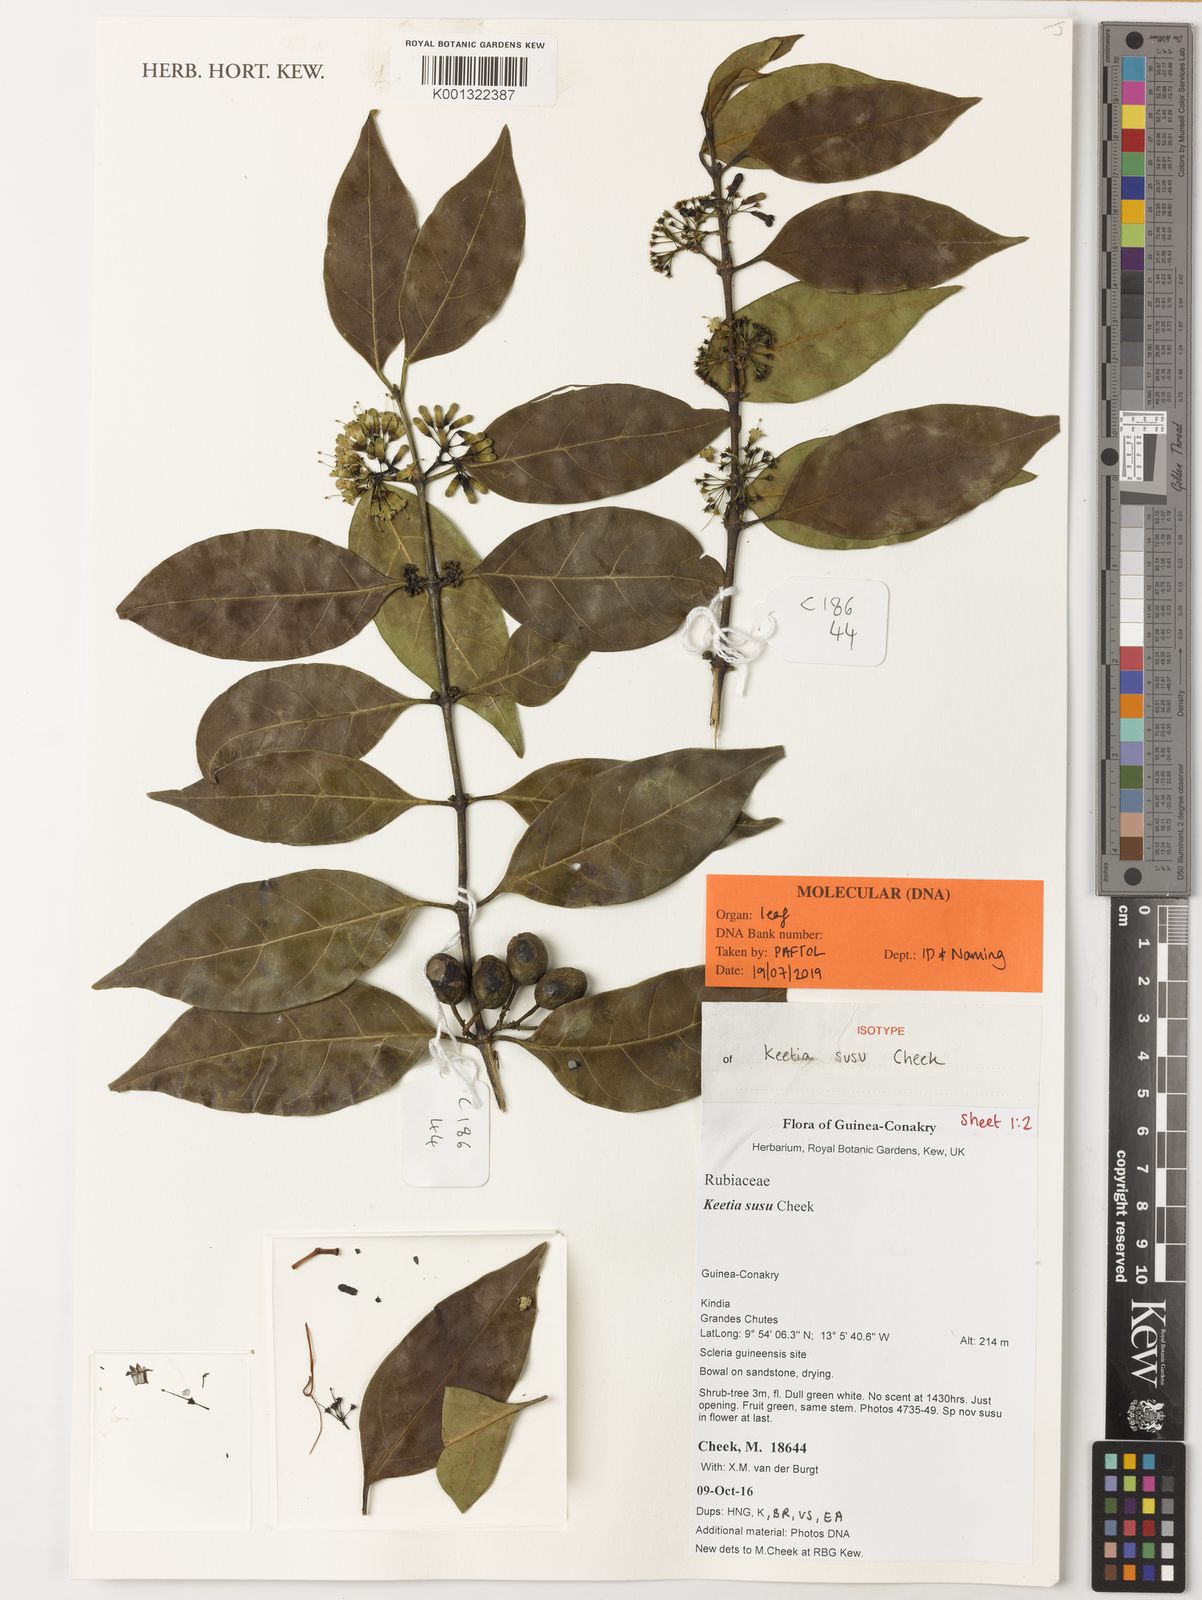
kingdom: Plantae
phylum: Tracheophyta
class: Magnoliopsida
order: Gentianales
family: Rubiaceae
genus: Keetia
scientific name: Keetia susu
